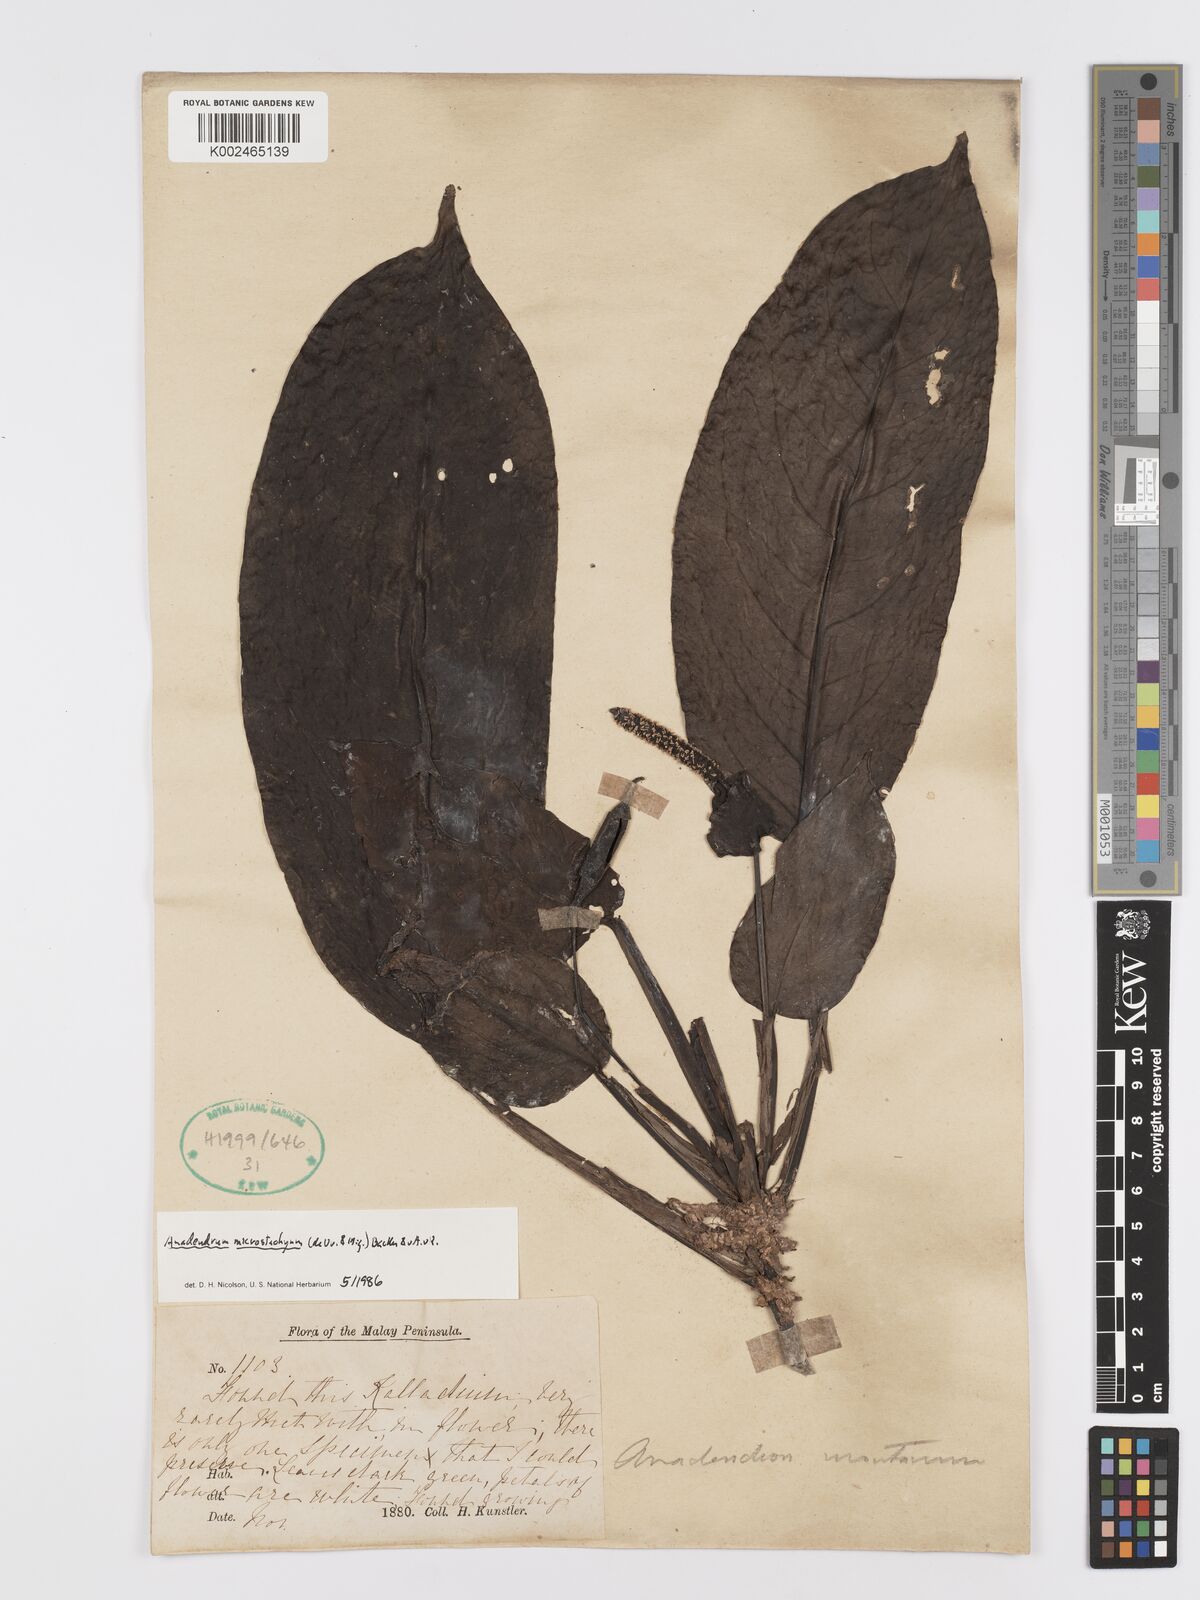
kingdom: Plantae
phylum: Tracheophyta
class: Liliopsida
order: Alismatales
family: Araceae
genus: Anadendrum
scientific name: Anadendrum microstachyum
